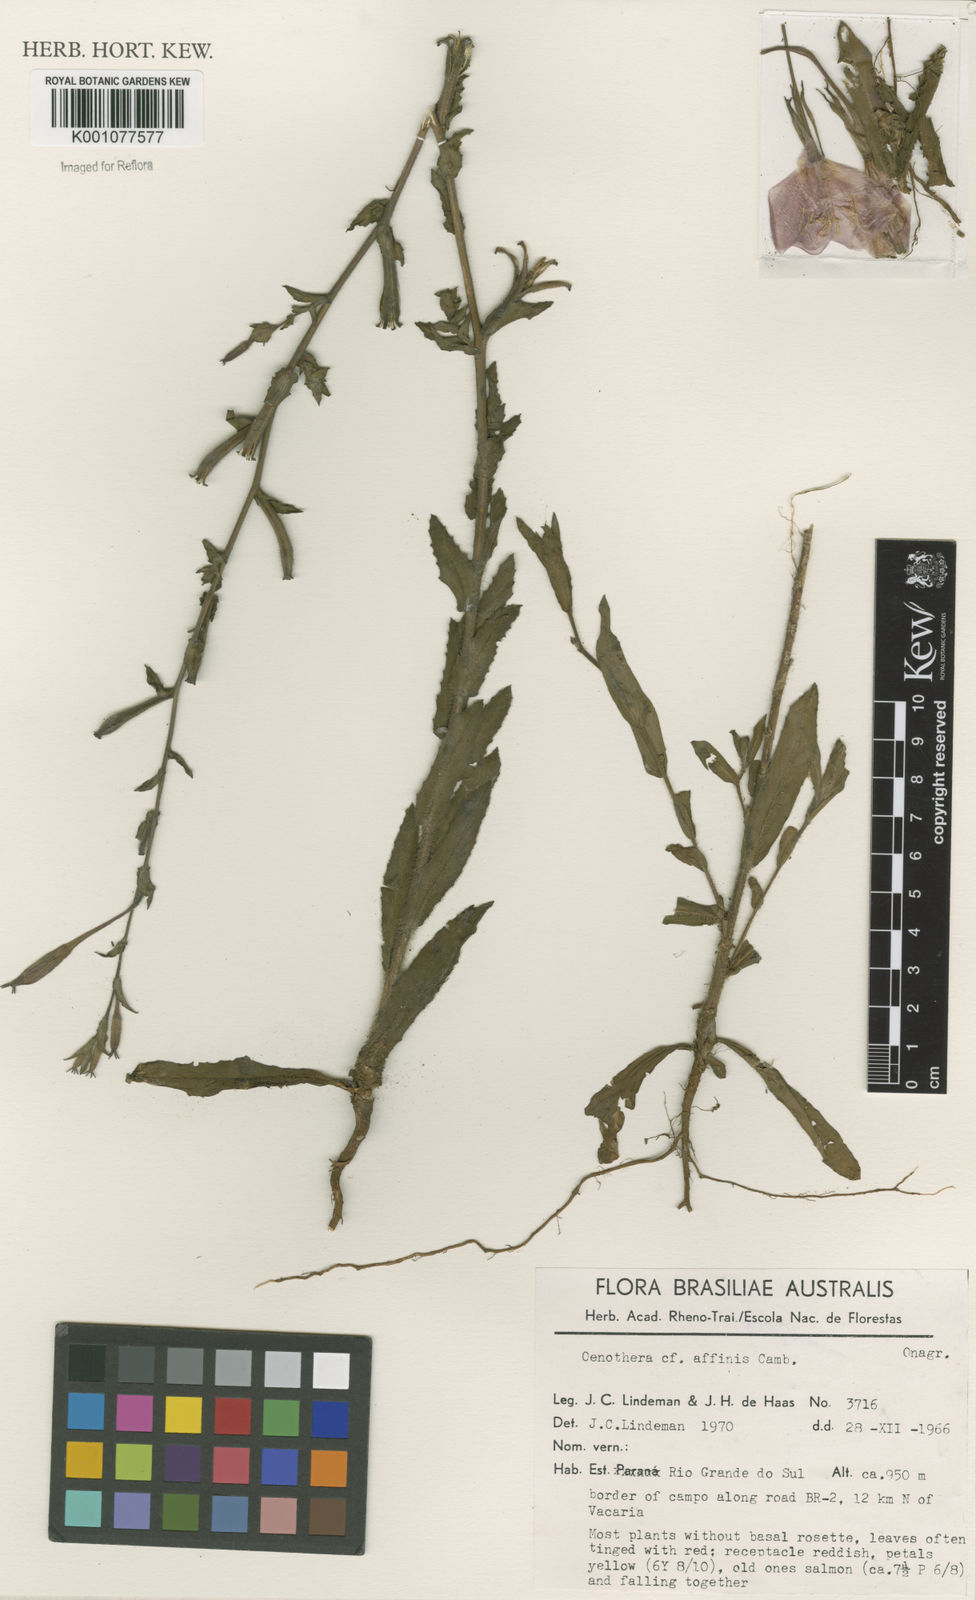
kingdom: Plantae
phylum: Tracheophyta
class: Magnoliopsida
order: Myrtales
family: Onagraceae
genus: Oenothera
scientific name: Oenothera affinis
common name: Longflower evening primrose
